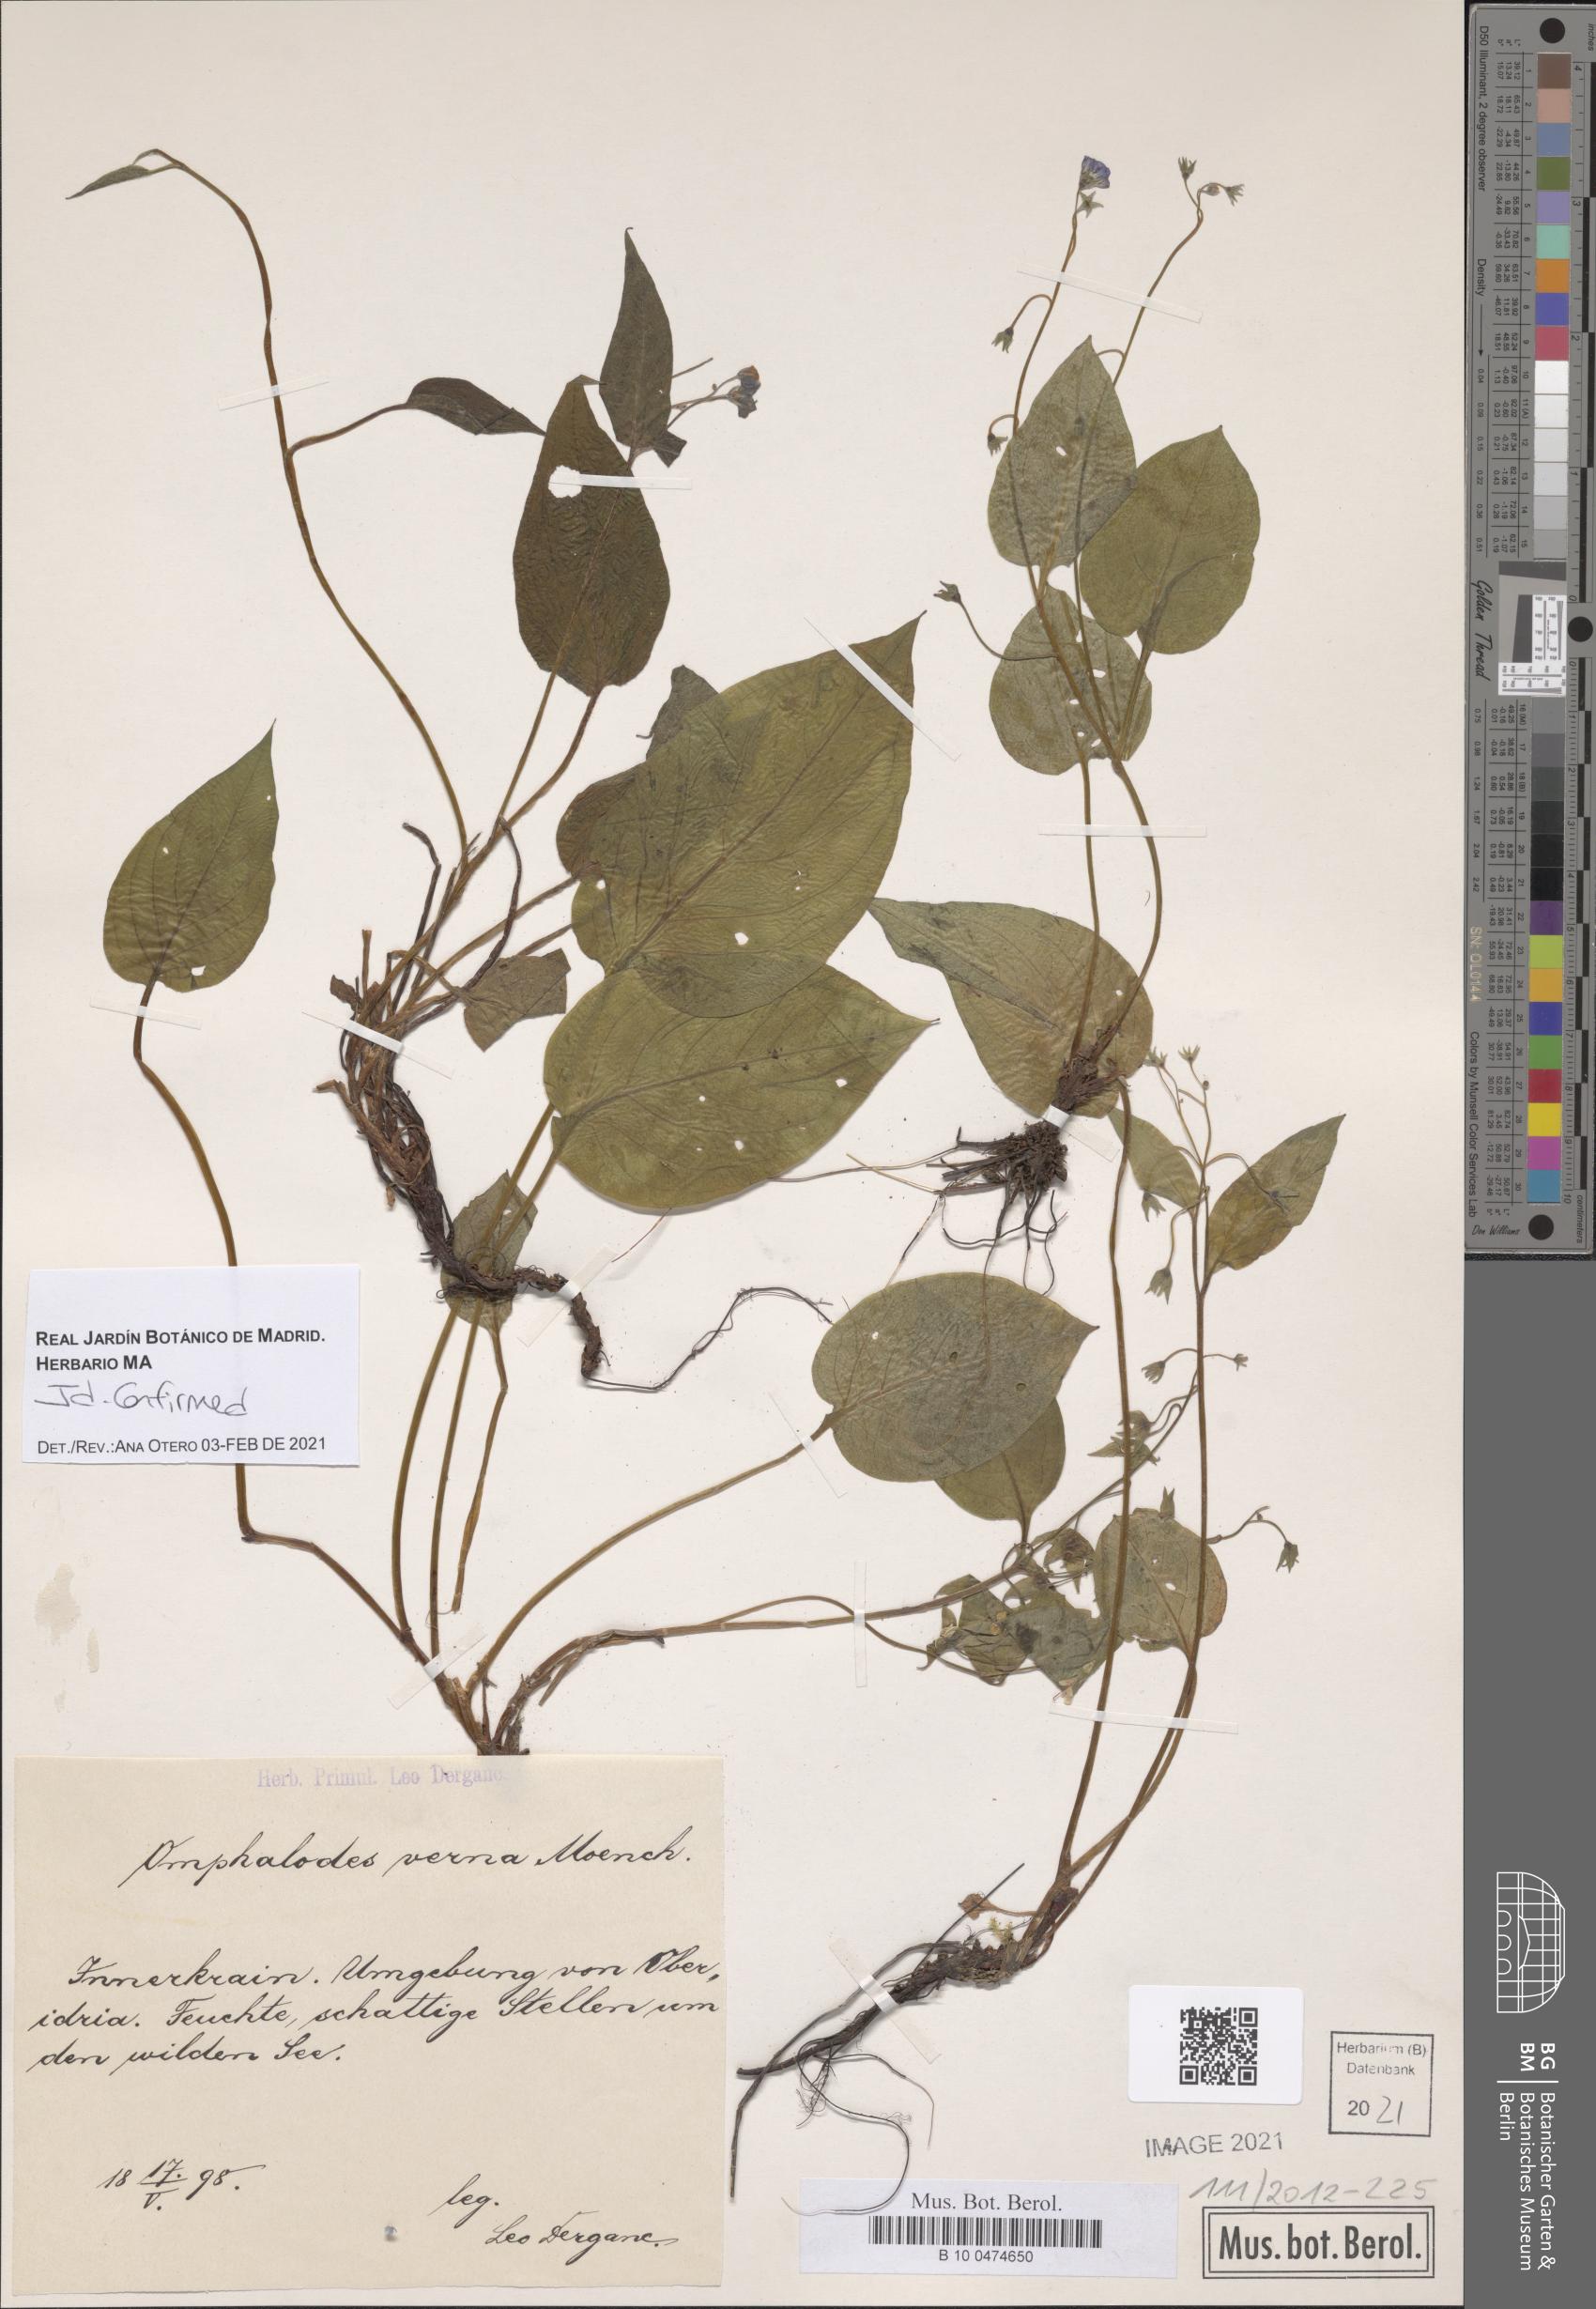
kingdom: Plantae
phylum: Tracheophyta
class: Magnoliopsida
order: Boraginales
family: Boraginaceae
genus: Omphalodes
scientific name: Omphalodes verna
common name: Blue-eyed-mary
